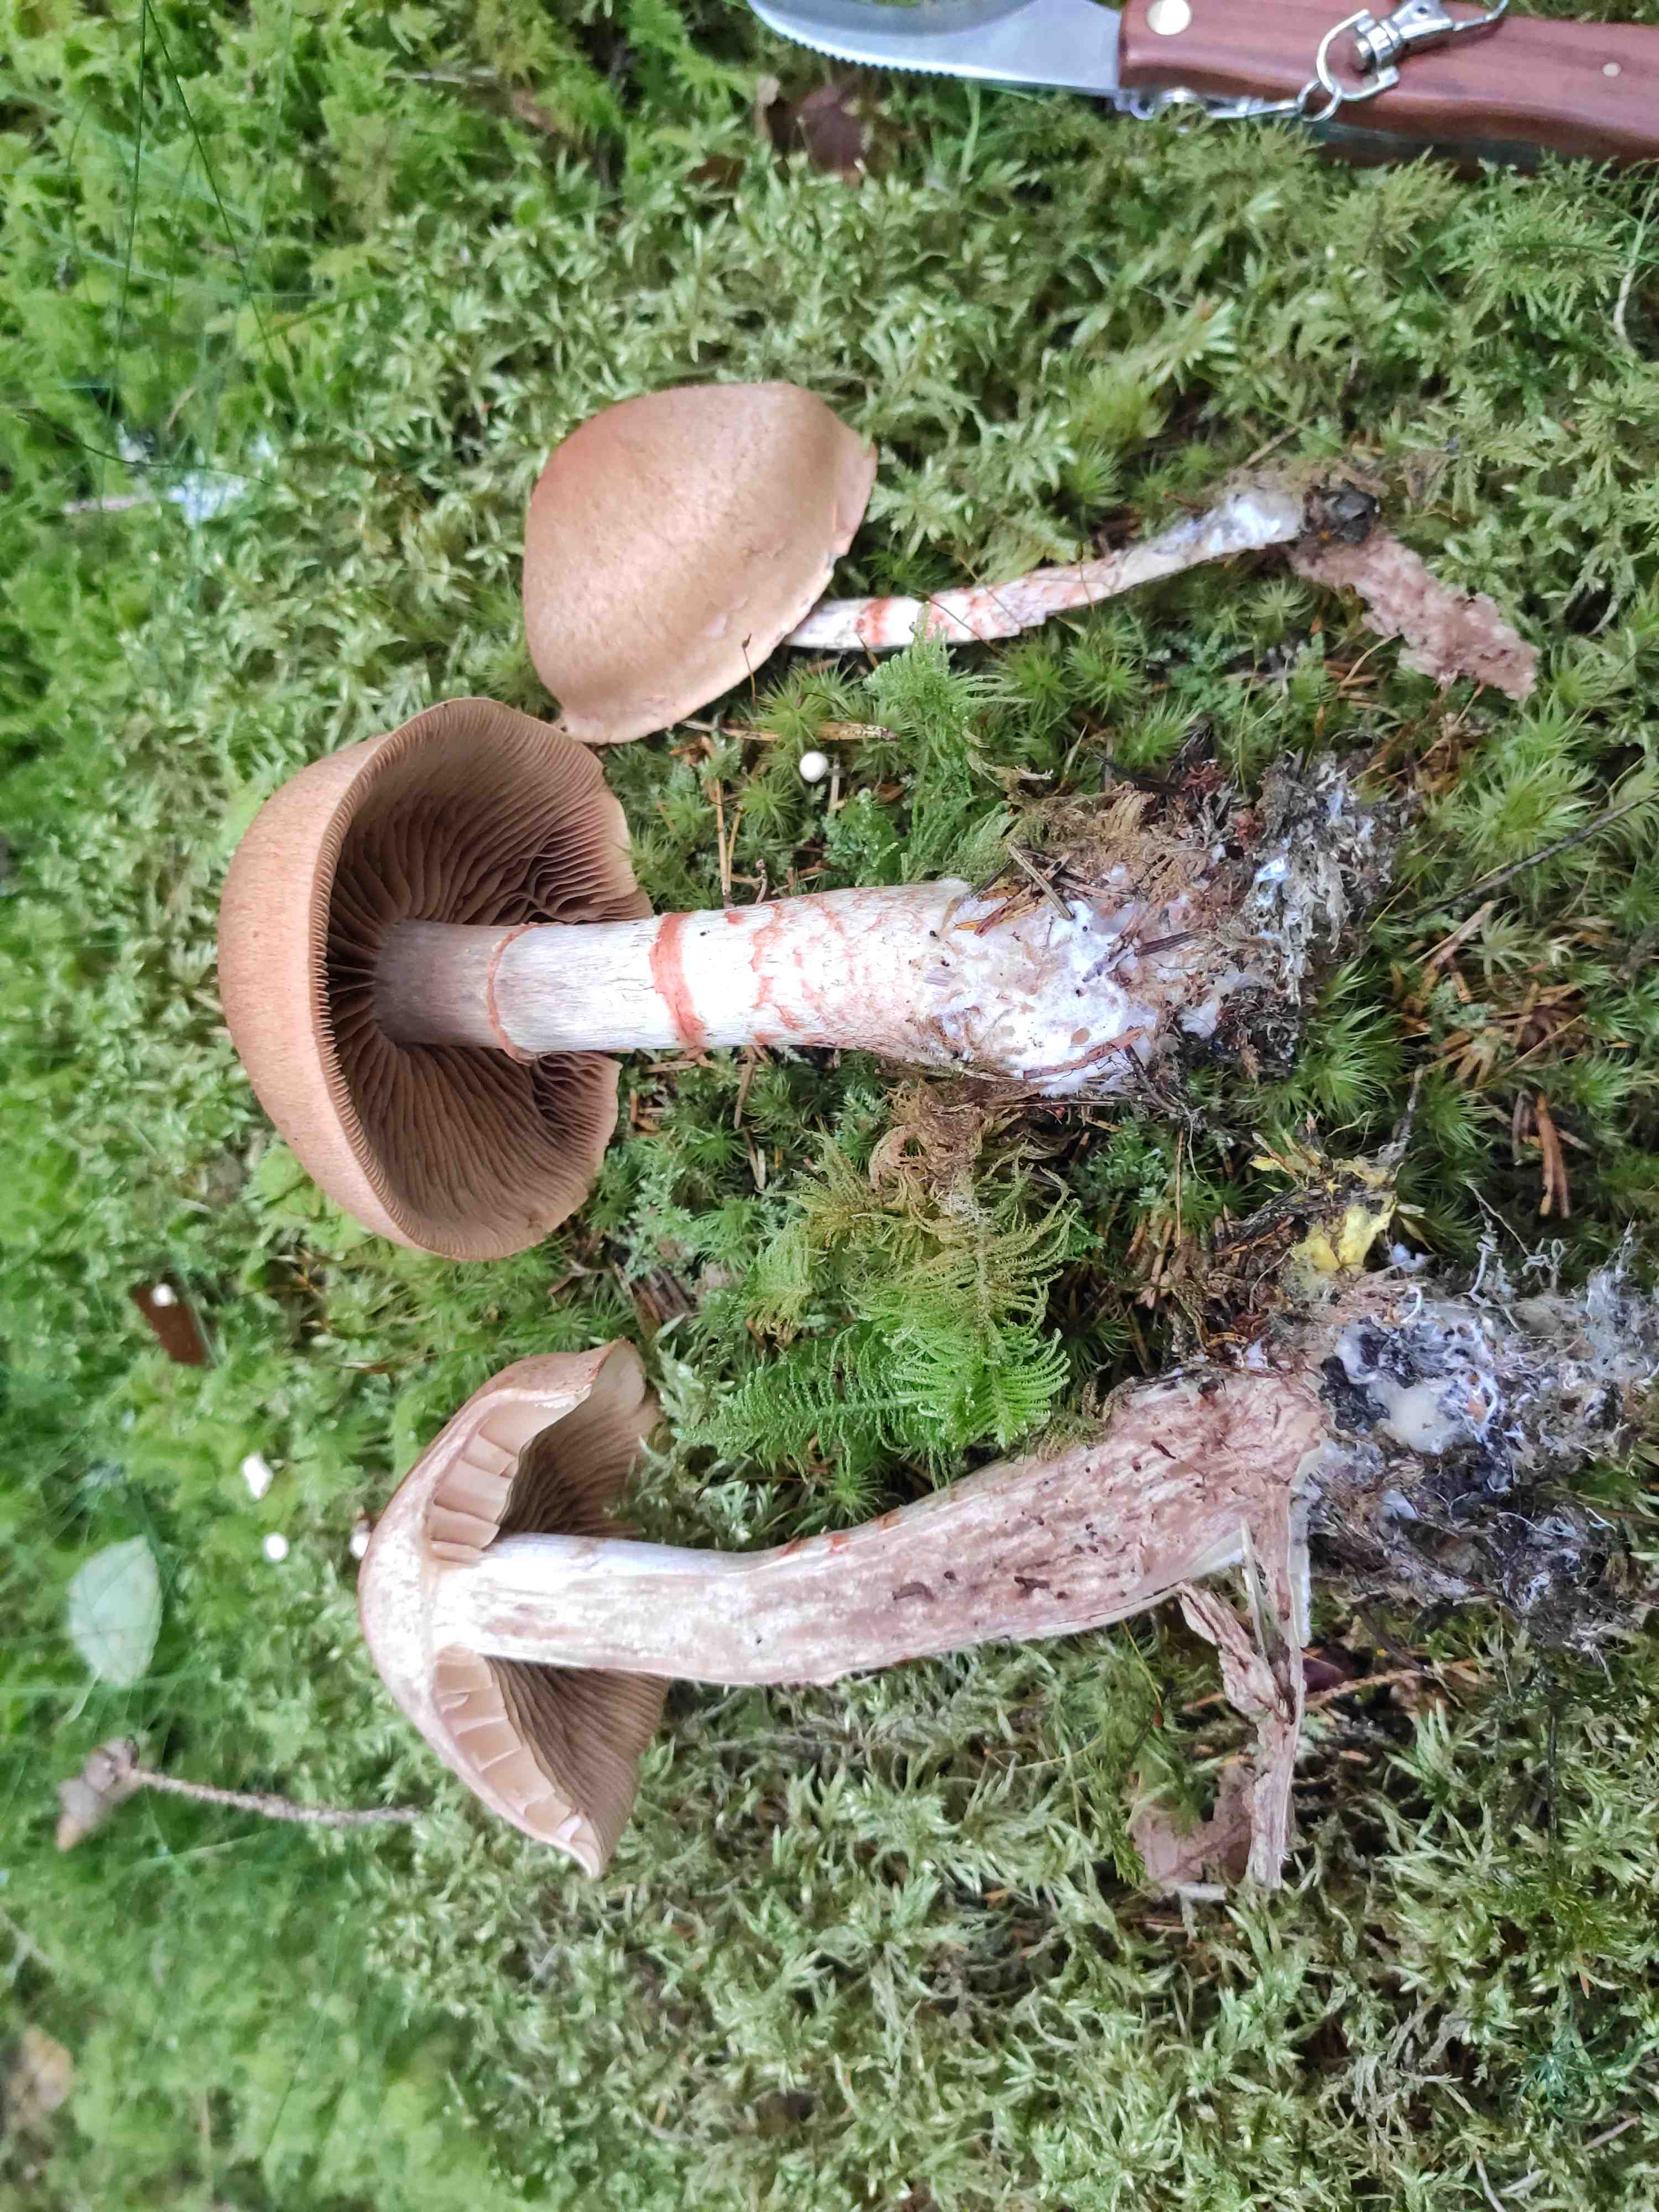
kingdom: Fungi
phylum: Basidiomycota
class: Agaricomycetes
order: Agaricales
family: Cortinariaceae
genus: Cortinarius
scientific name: Cortinarius armillatus
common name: cinnoberbæltet slørhat
